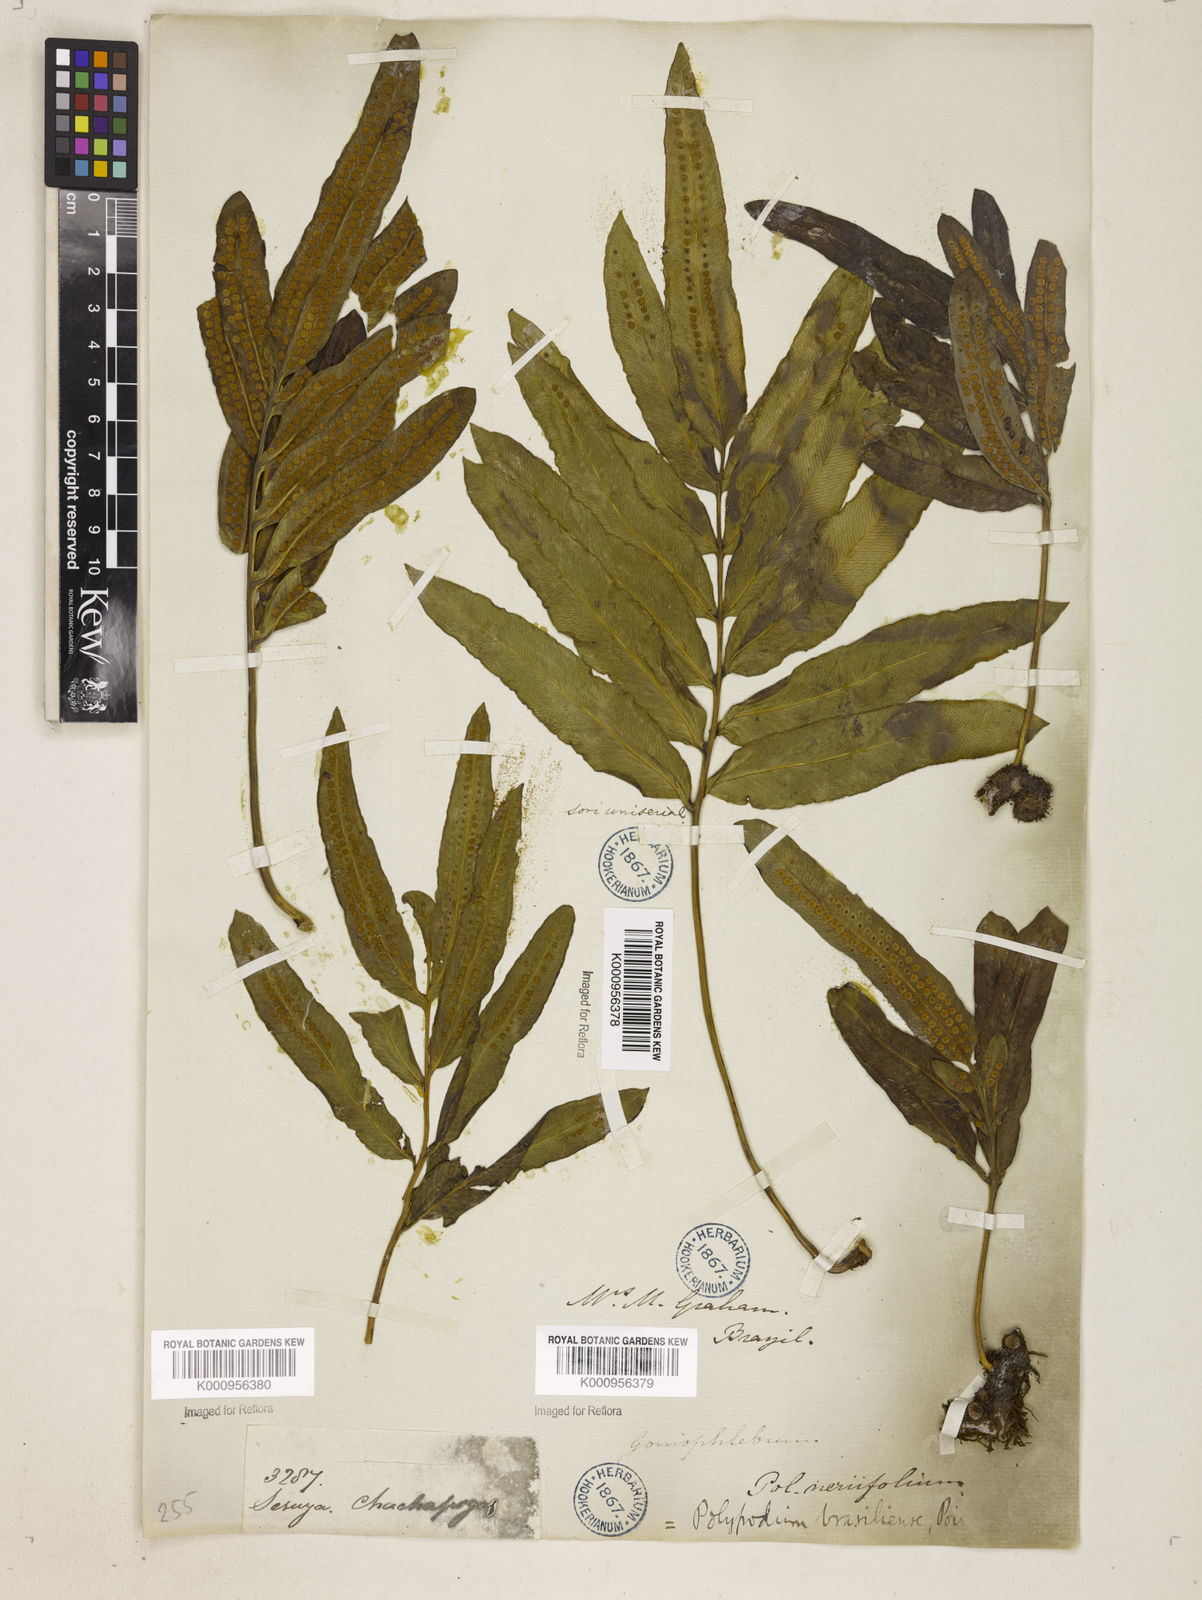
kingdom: Plantae
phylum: Tracheophyta
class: Polypodiopsida
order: Polypodiales
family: Polypodiaceae
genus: Serpocaulon
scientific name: Serpocaulon triseriale
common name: Angle-vein fern
